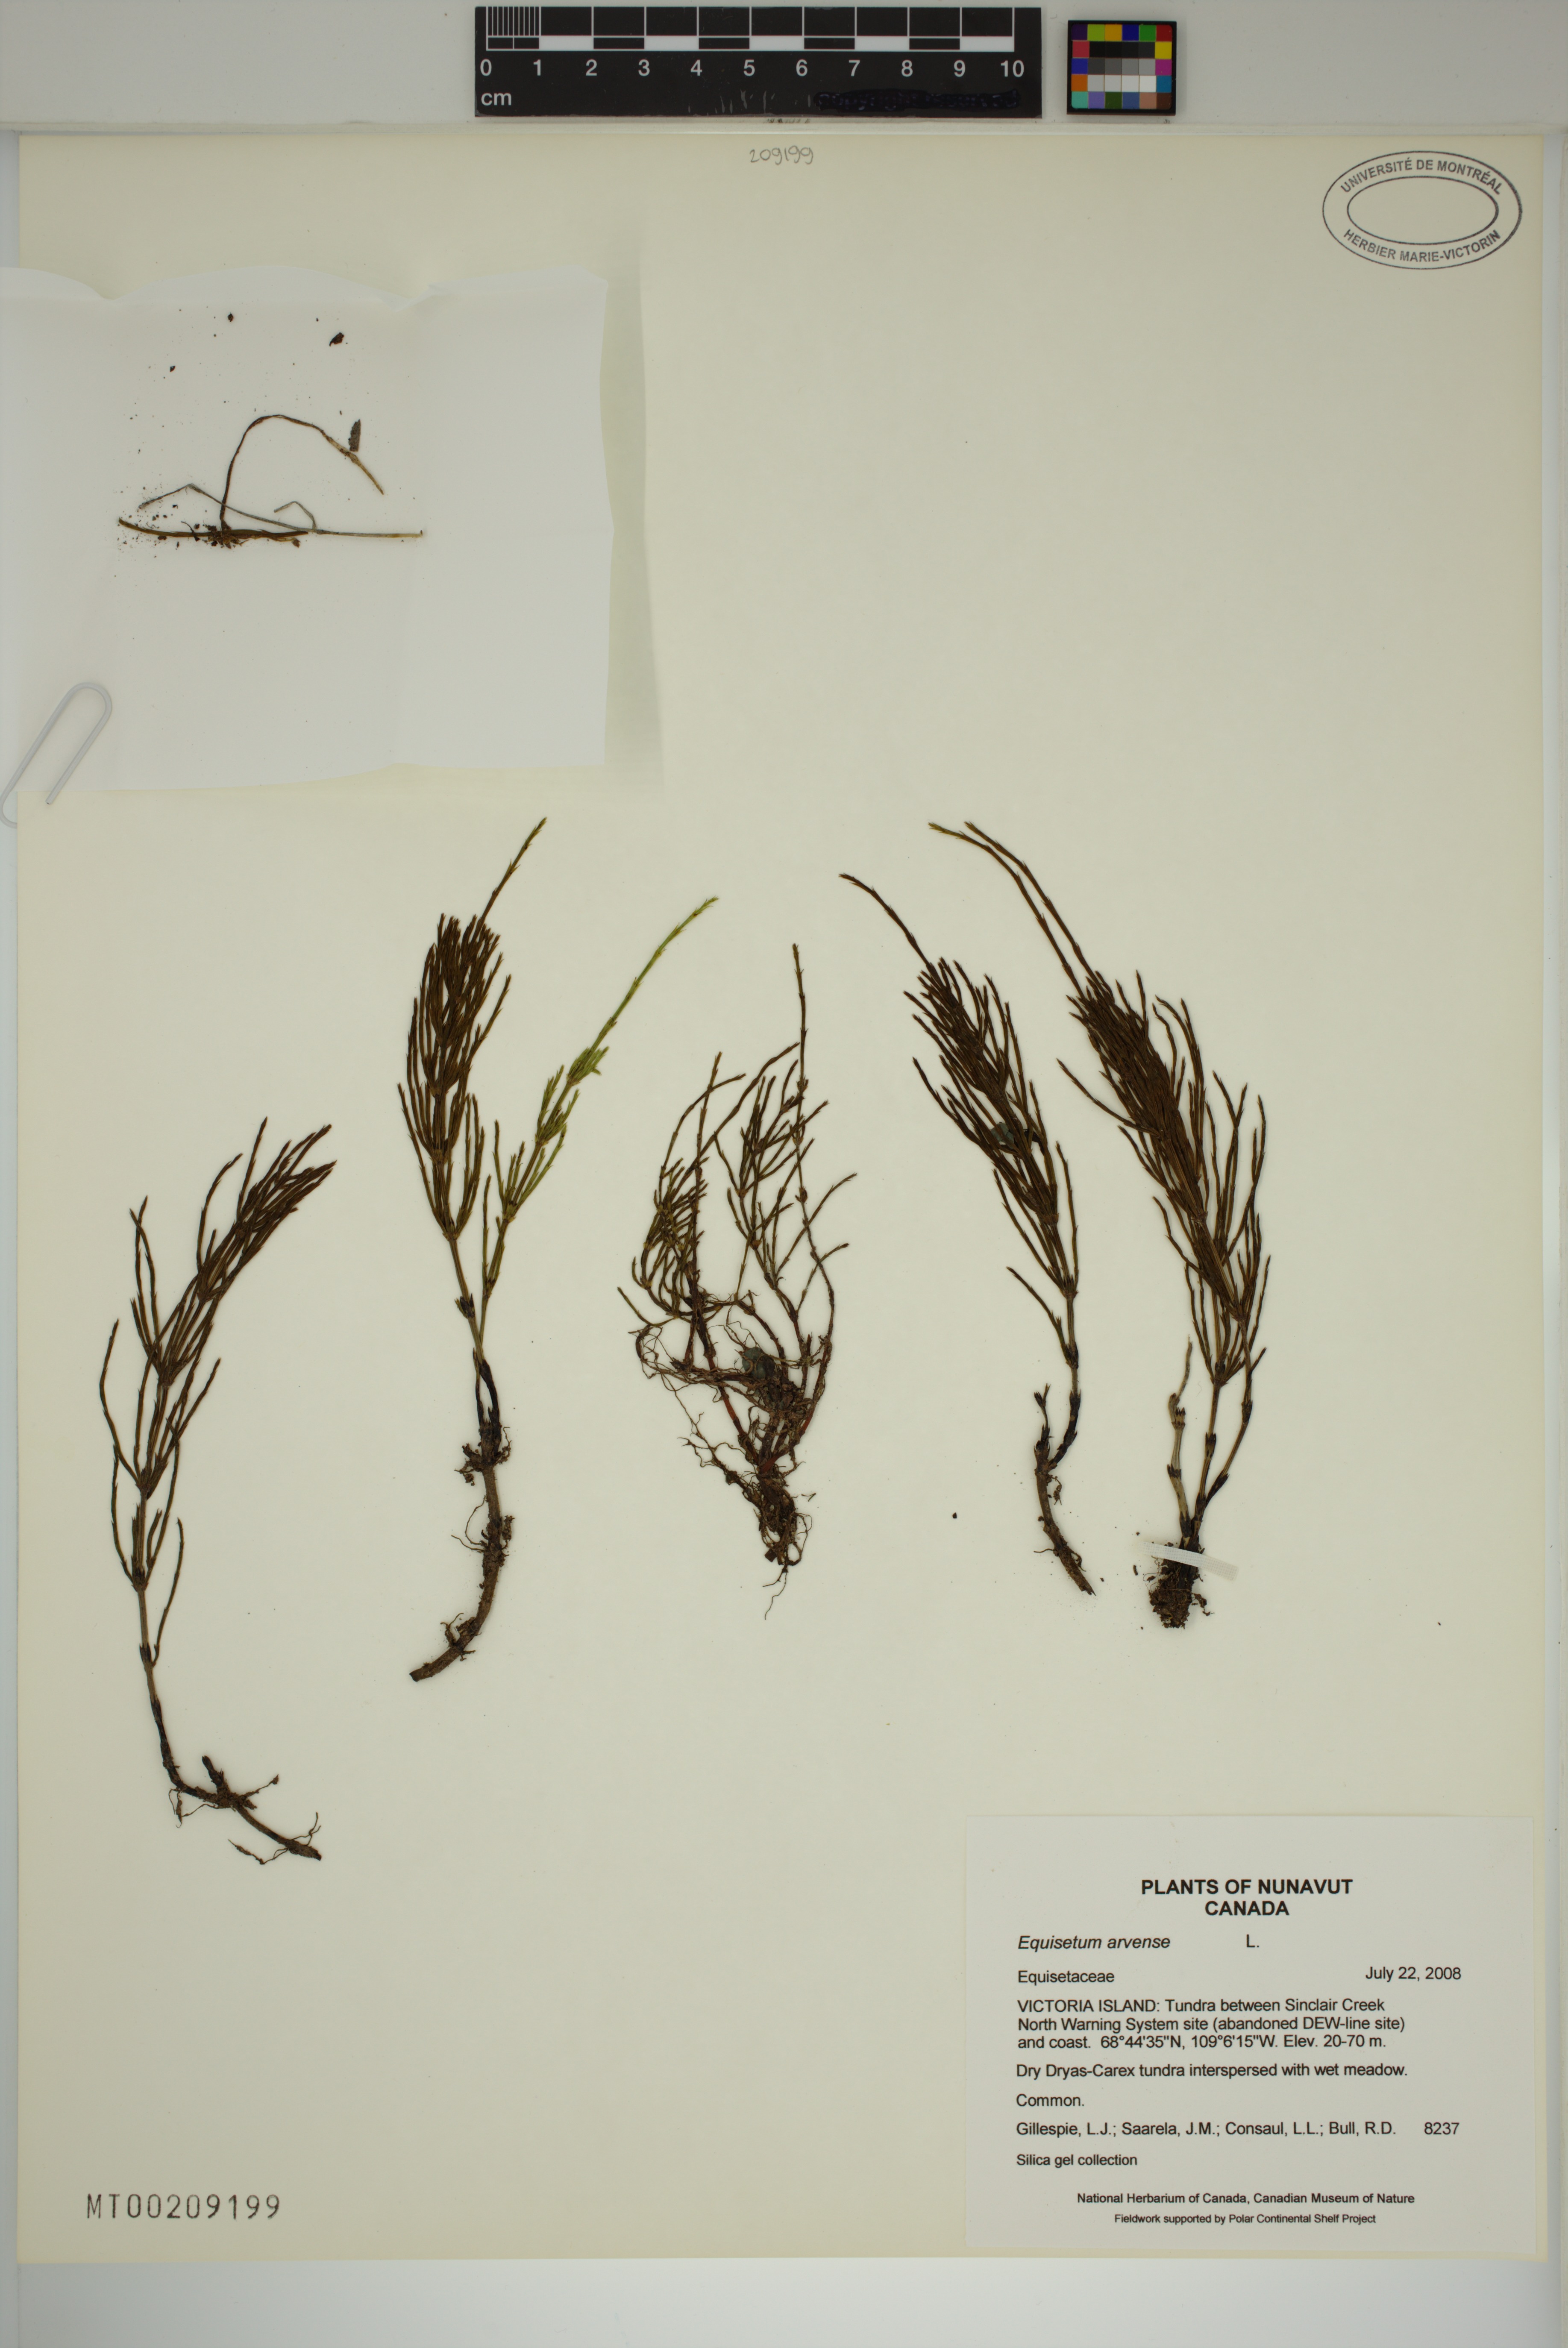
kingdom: Plantae
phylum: Tracheophyta
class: Polypodiopsida
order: Equisetales
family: Equisetaceae
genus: Equisetum
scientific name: Equisetum arvense
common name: Field horsetail
